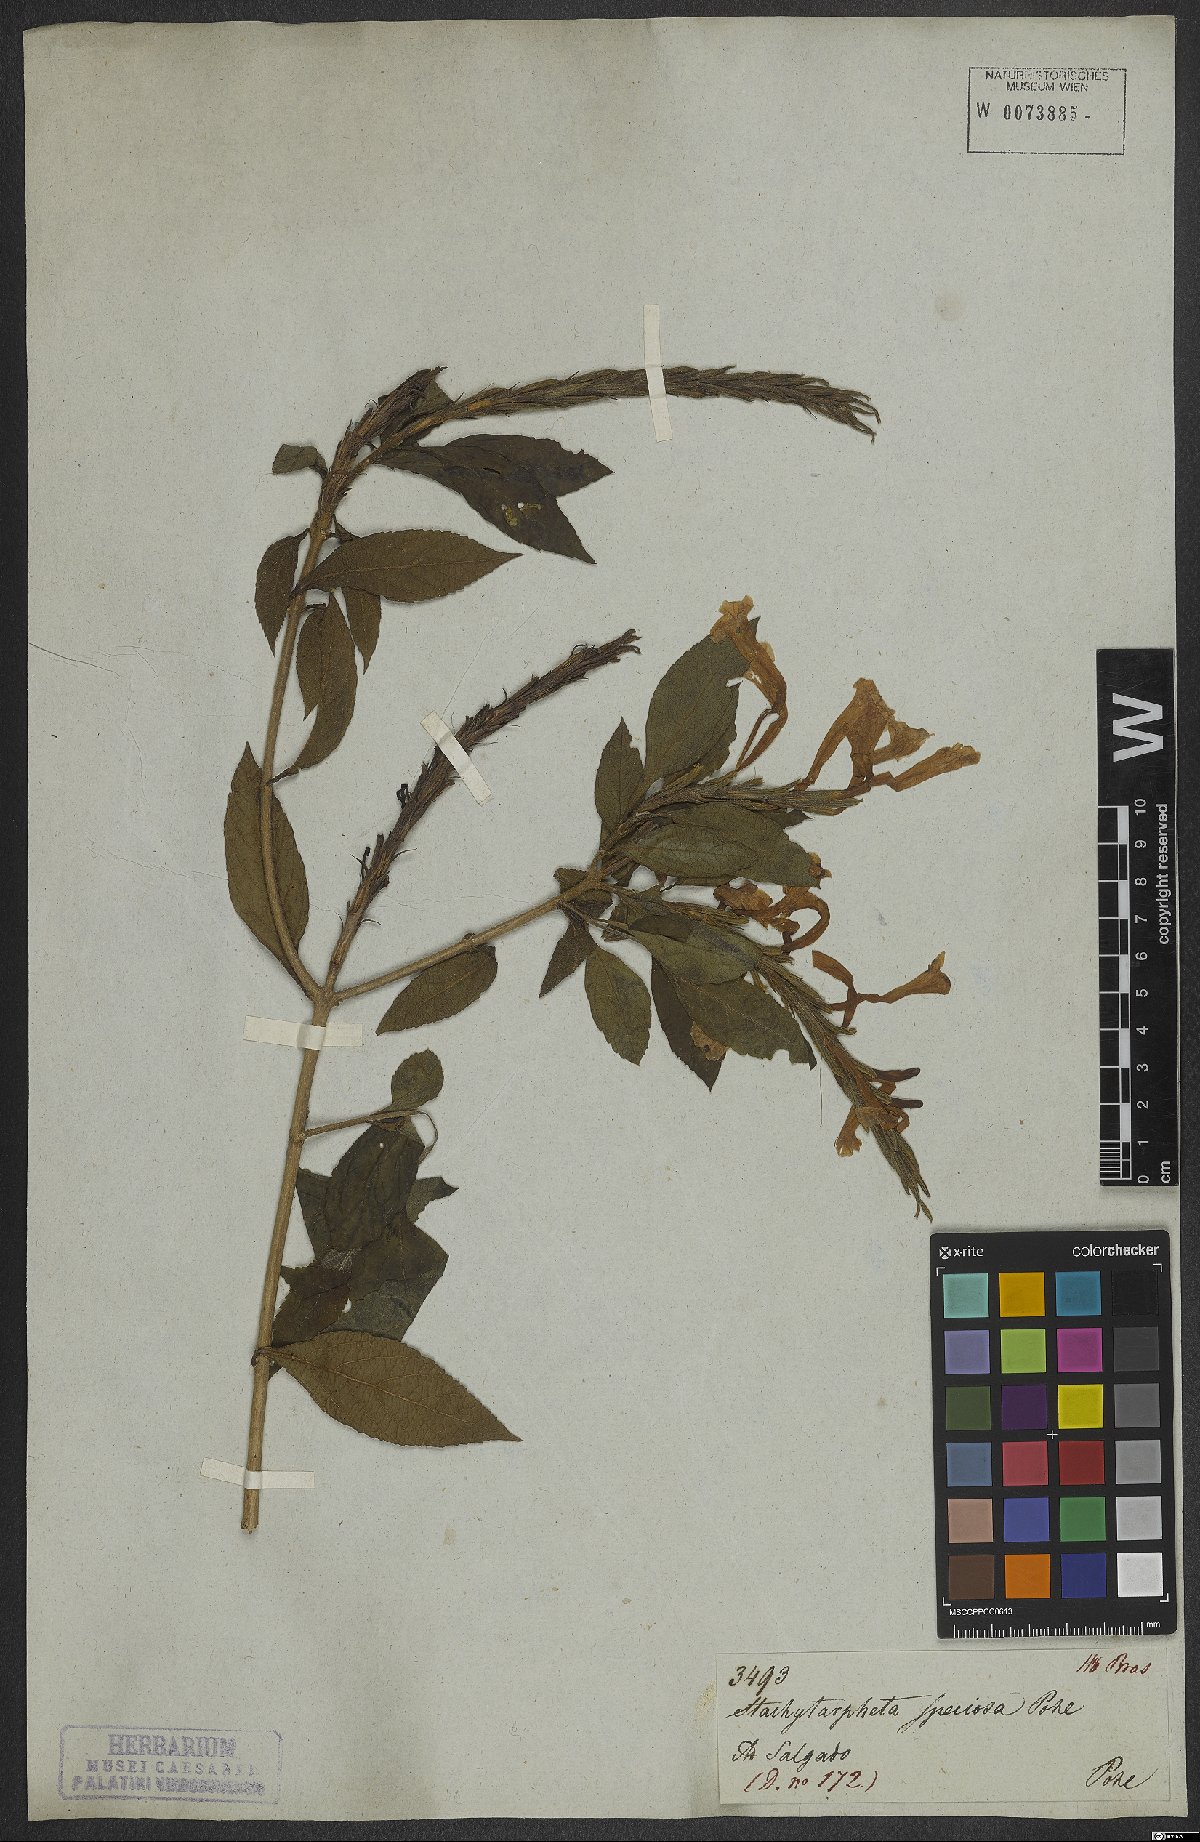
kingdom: Plantae
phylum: Tracheophyta
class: Magnoliopsida
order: Lamiales
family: Verbenaceae
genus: Stachytarpheta
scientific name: Stachytarpheta speciosa
